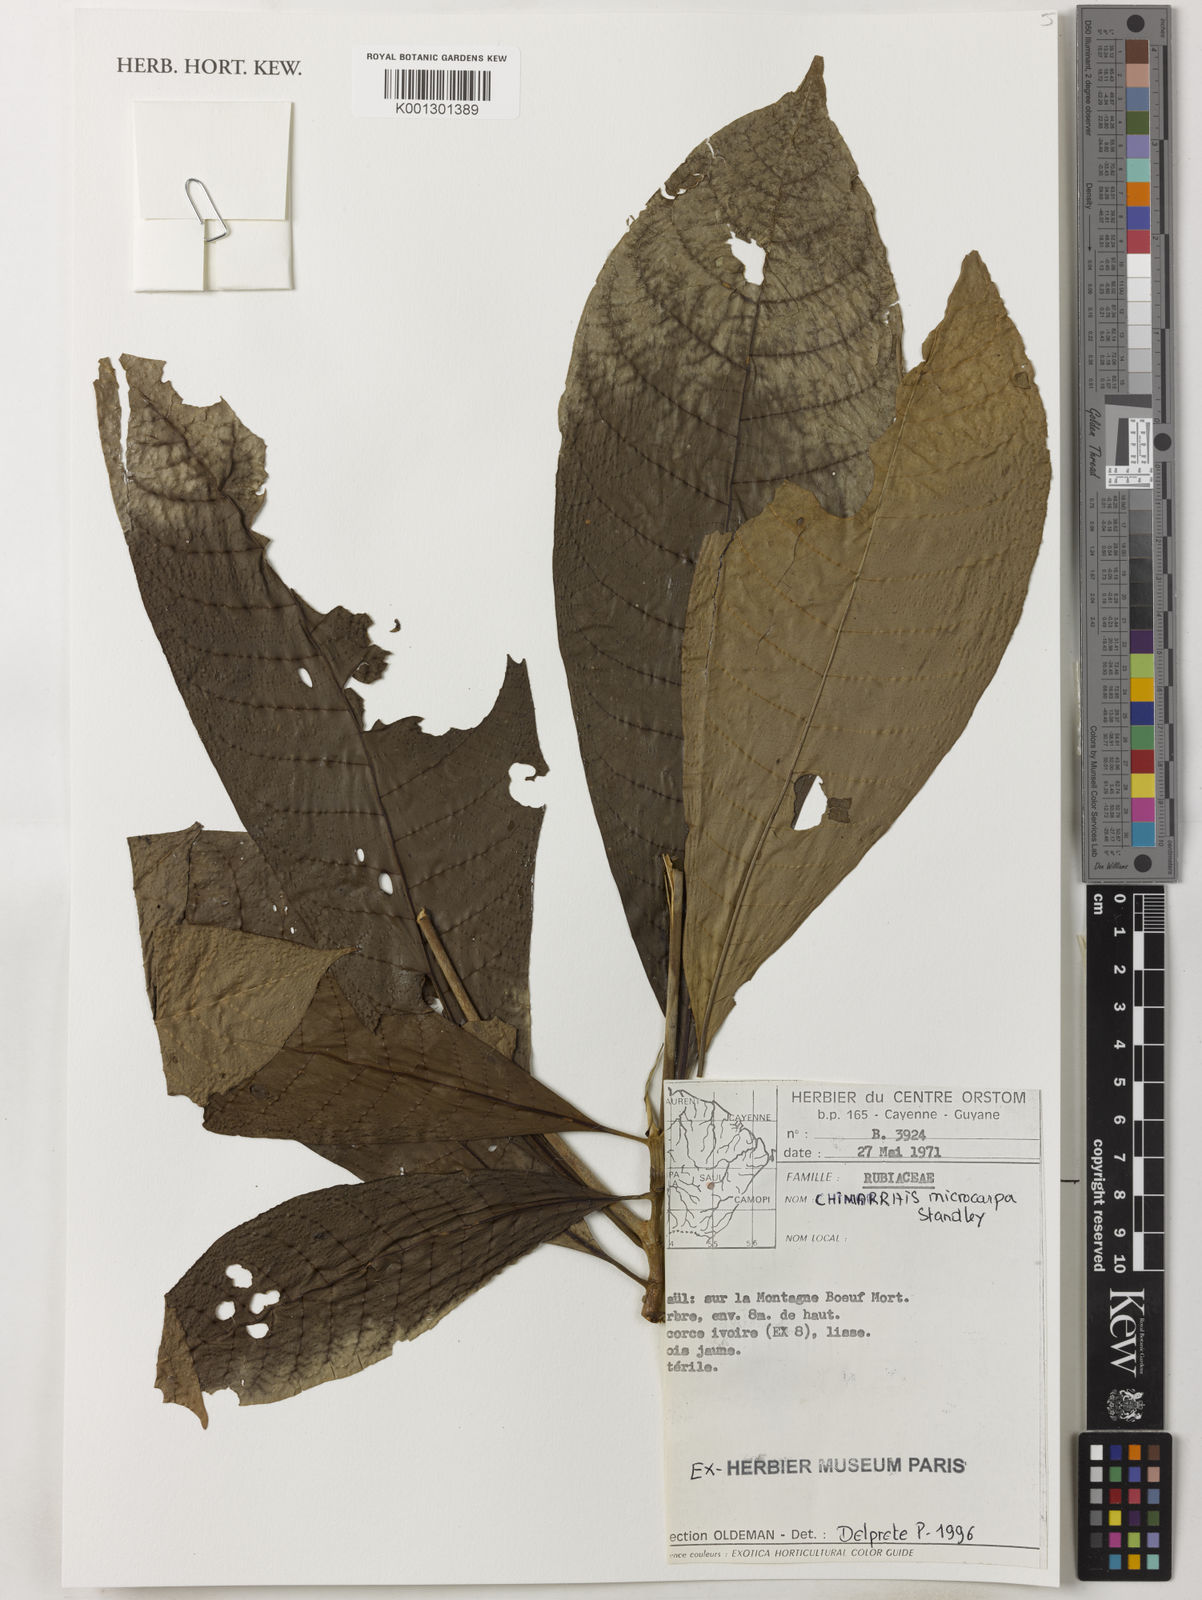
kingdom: Plantae
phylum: Tracheophyta
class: Magnoliopsida
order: Gentianales
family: Rubiaceae
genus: Chimarrhis
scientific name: Chimarrhis
